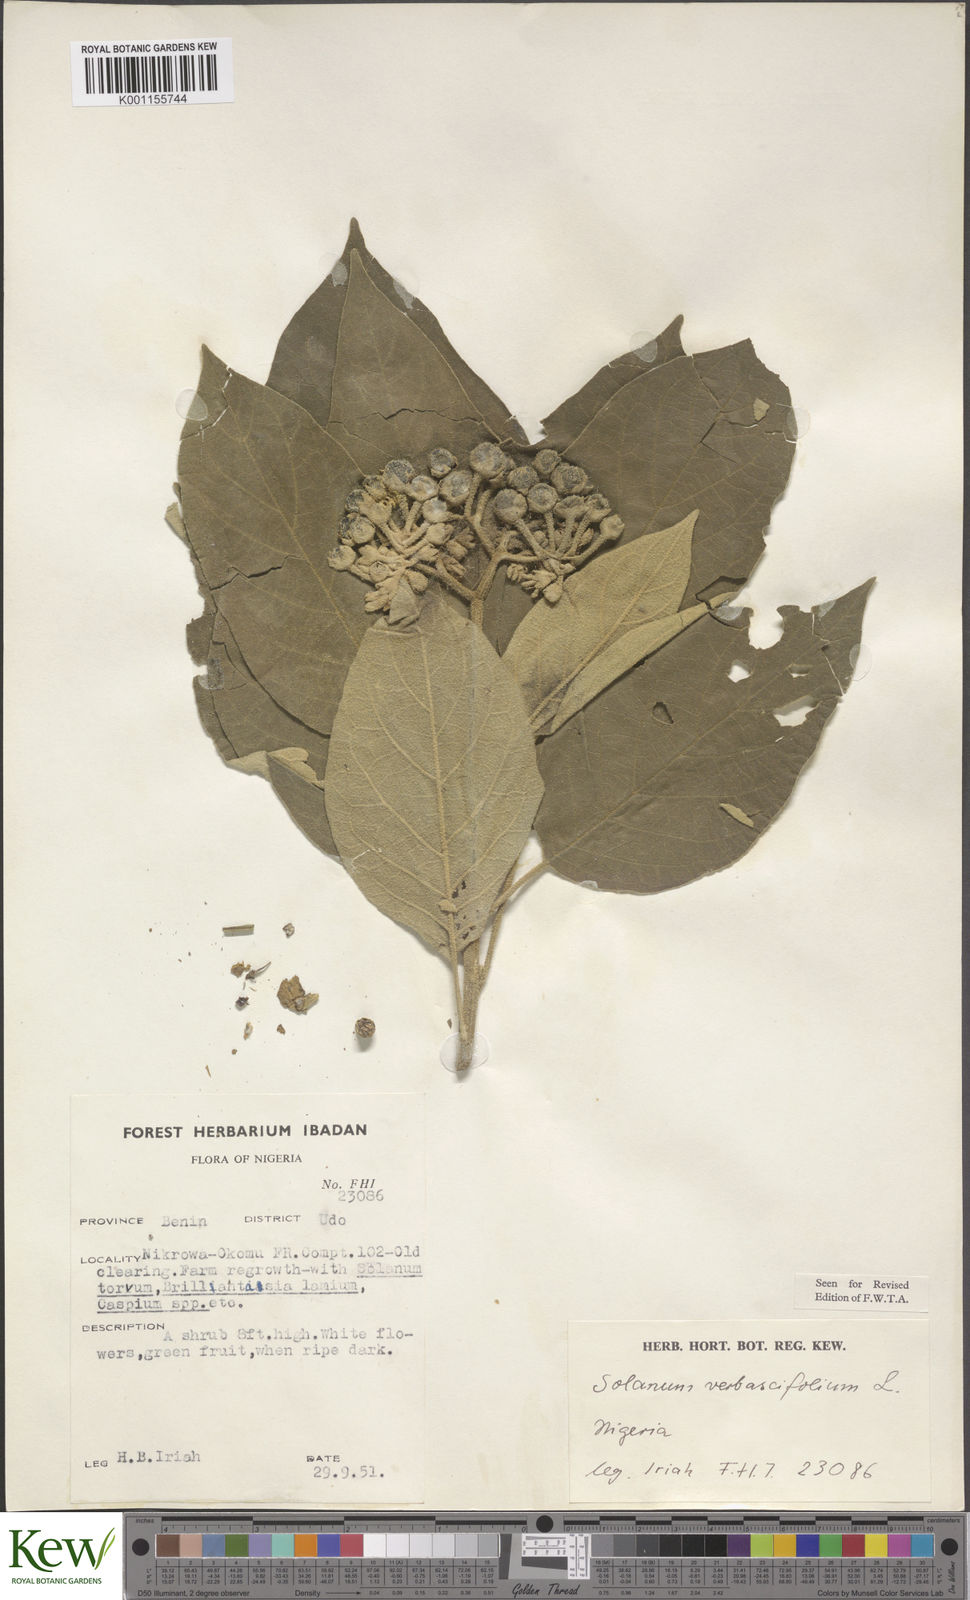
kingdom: Plantae
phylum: Tracheophyta
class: Magnoliopsida
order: Solanales
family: Solanaceae
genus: Solanum
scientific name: Solanum erianthum
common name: Tobacco-tree
